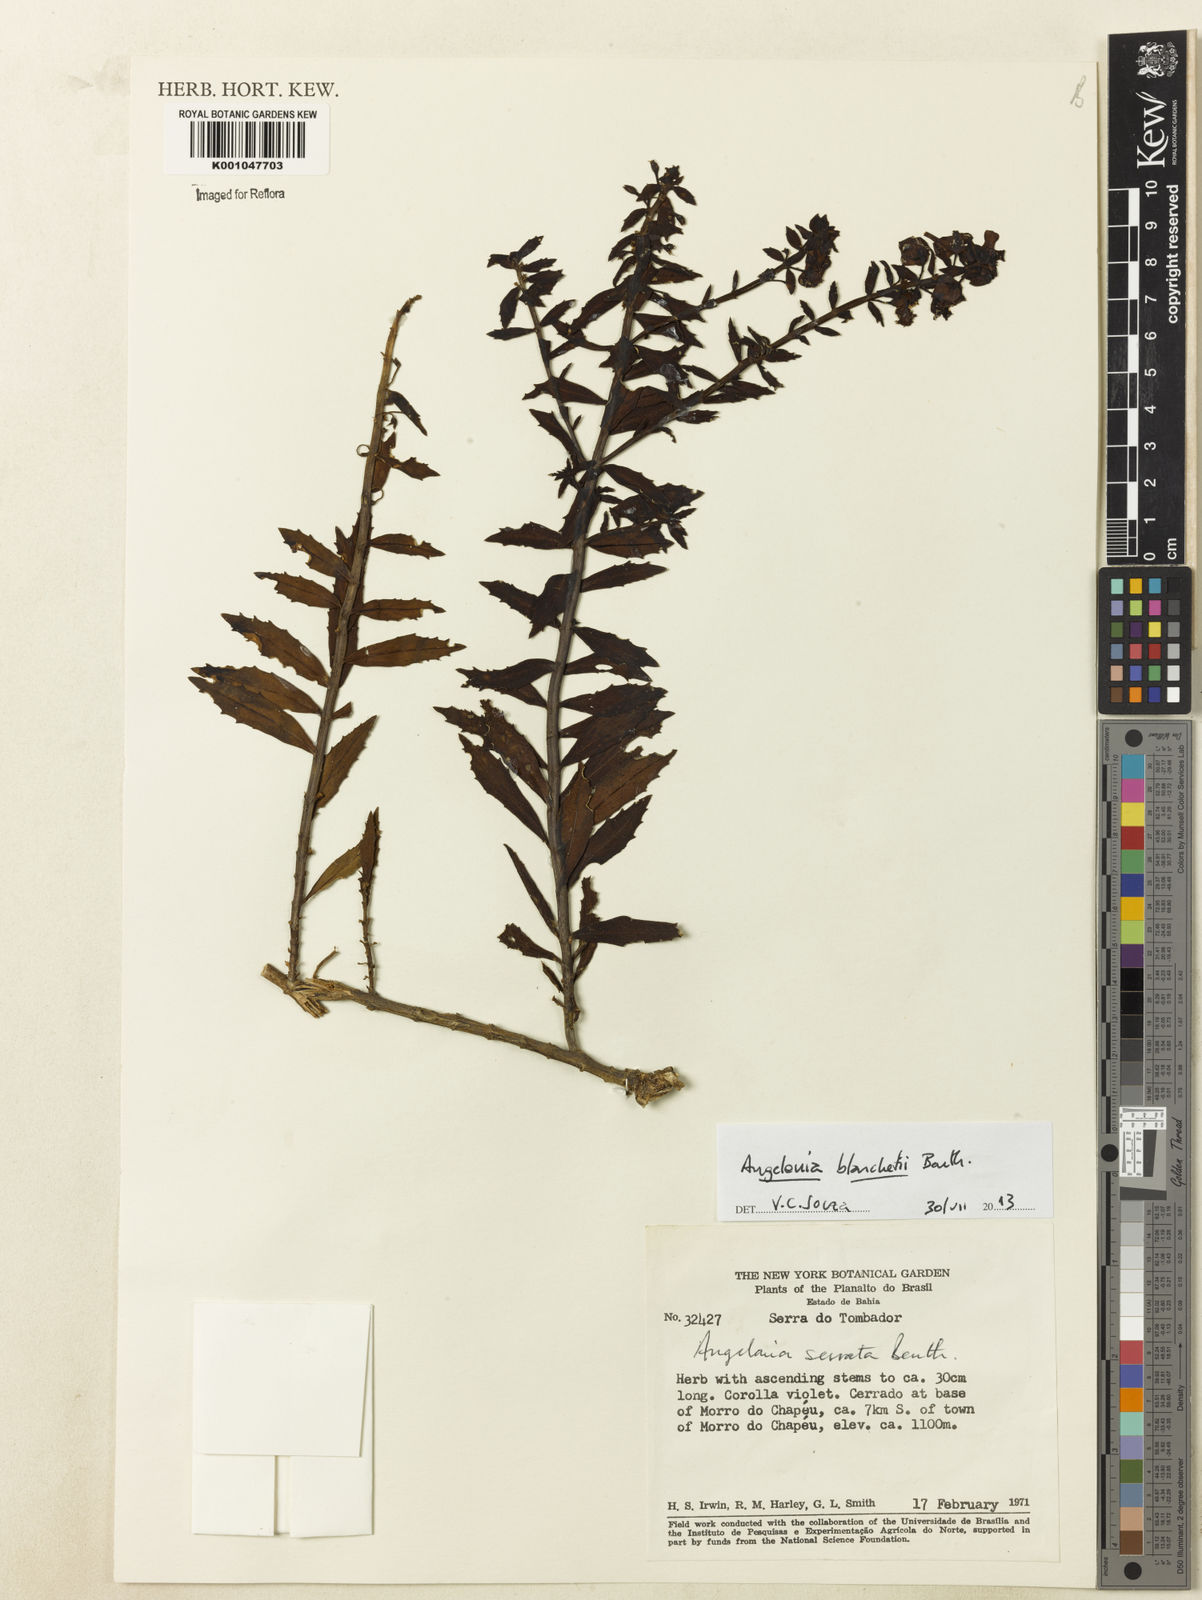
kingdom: Plantae
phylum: Tracheophyta
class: Magnoliopsida
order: Lamiales
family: Plantaginaceae
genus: Angelonia
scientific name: Angelonia blanchetii
